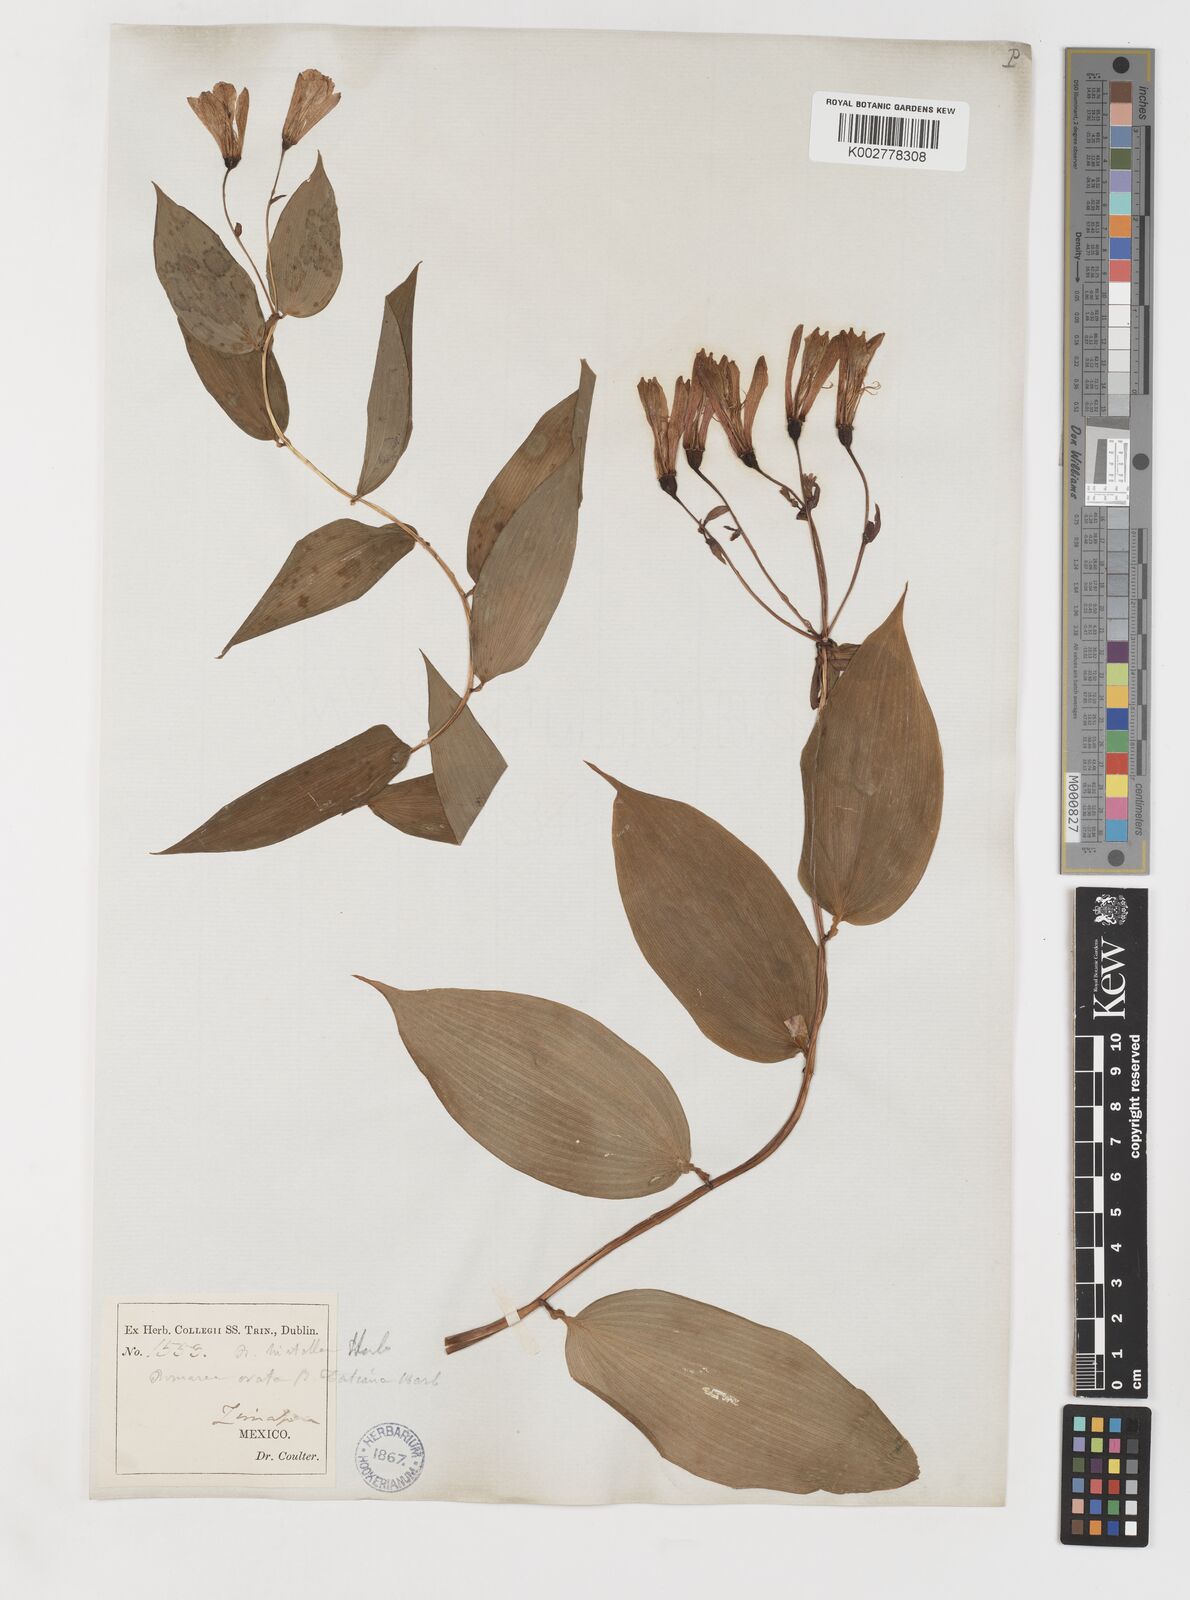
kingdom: Plantae
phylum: Tracheophyta
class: Liliopsida
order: Liliales
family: Alstroemeriaceae
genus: Bomarea
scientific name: Bomarea edulis
